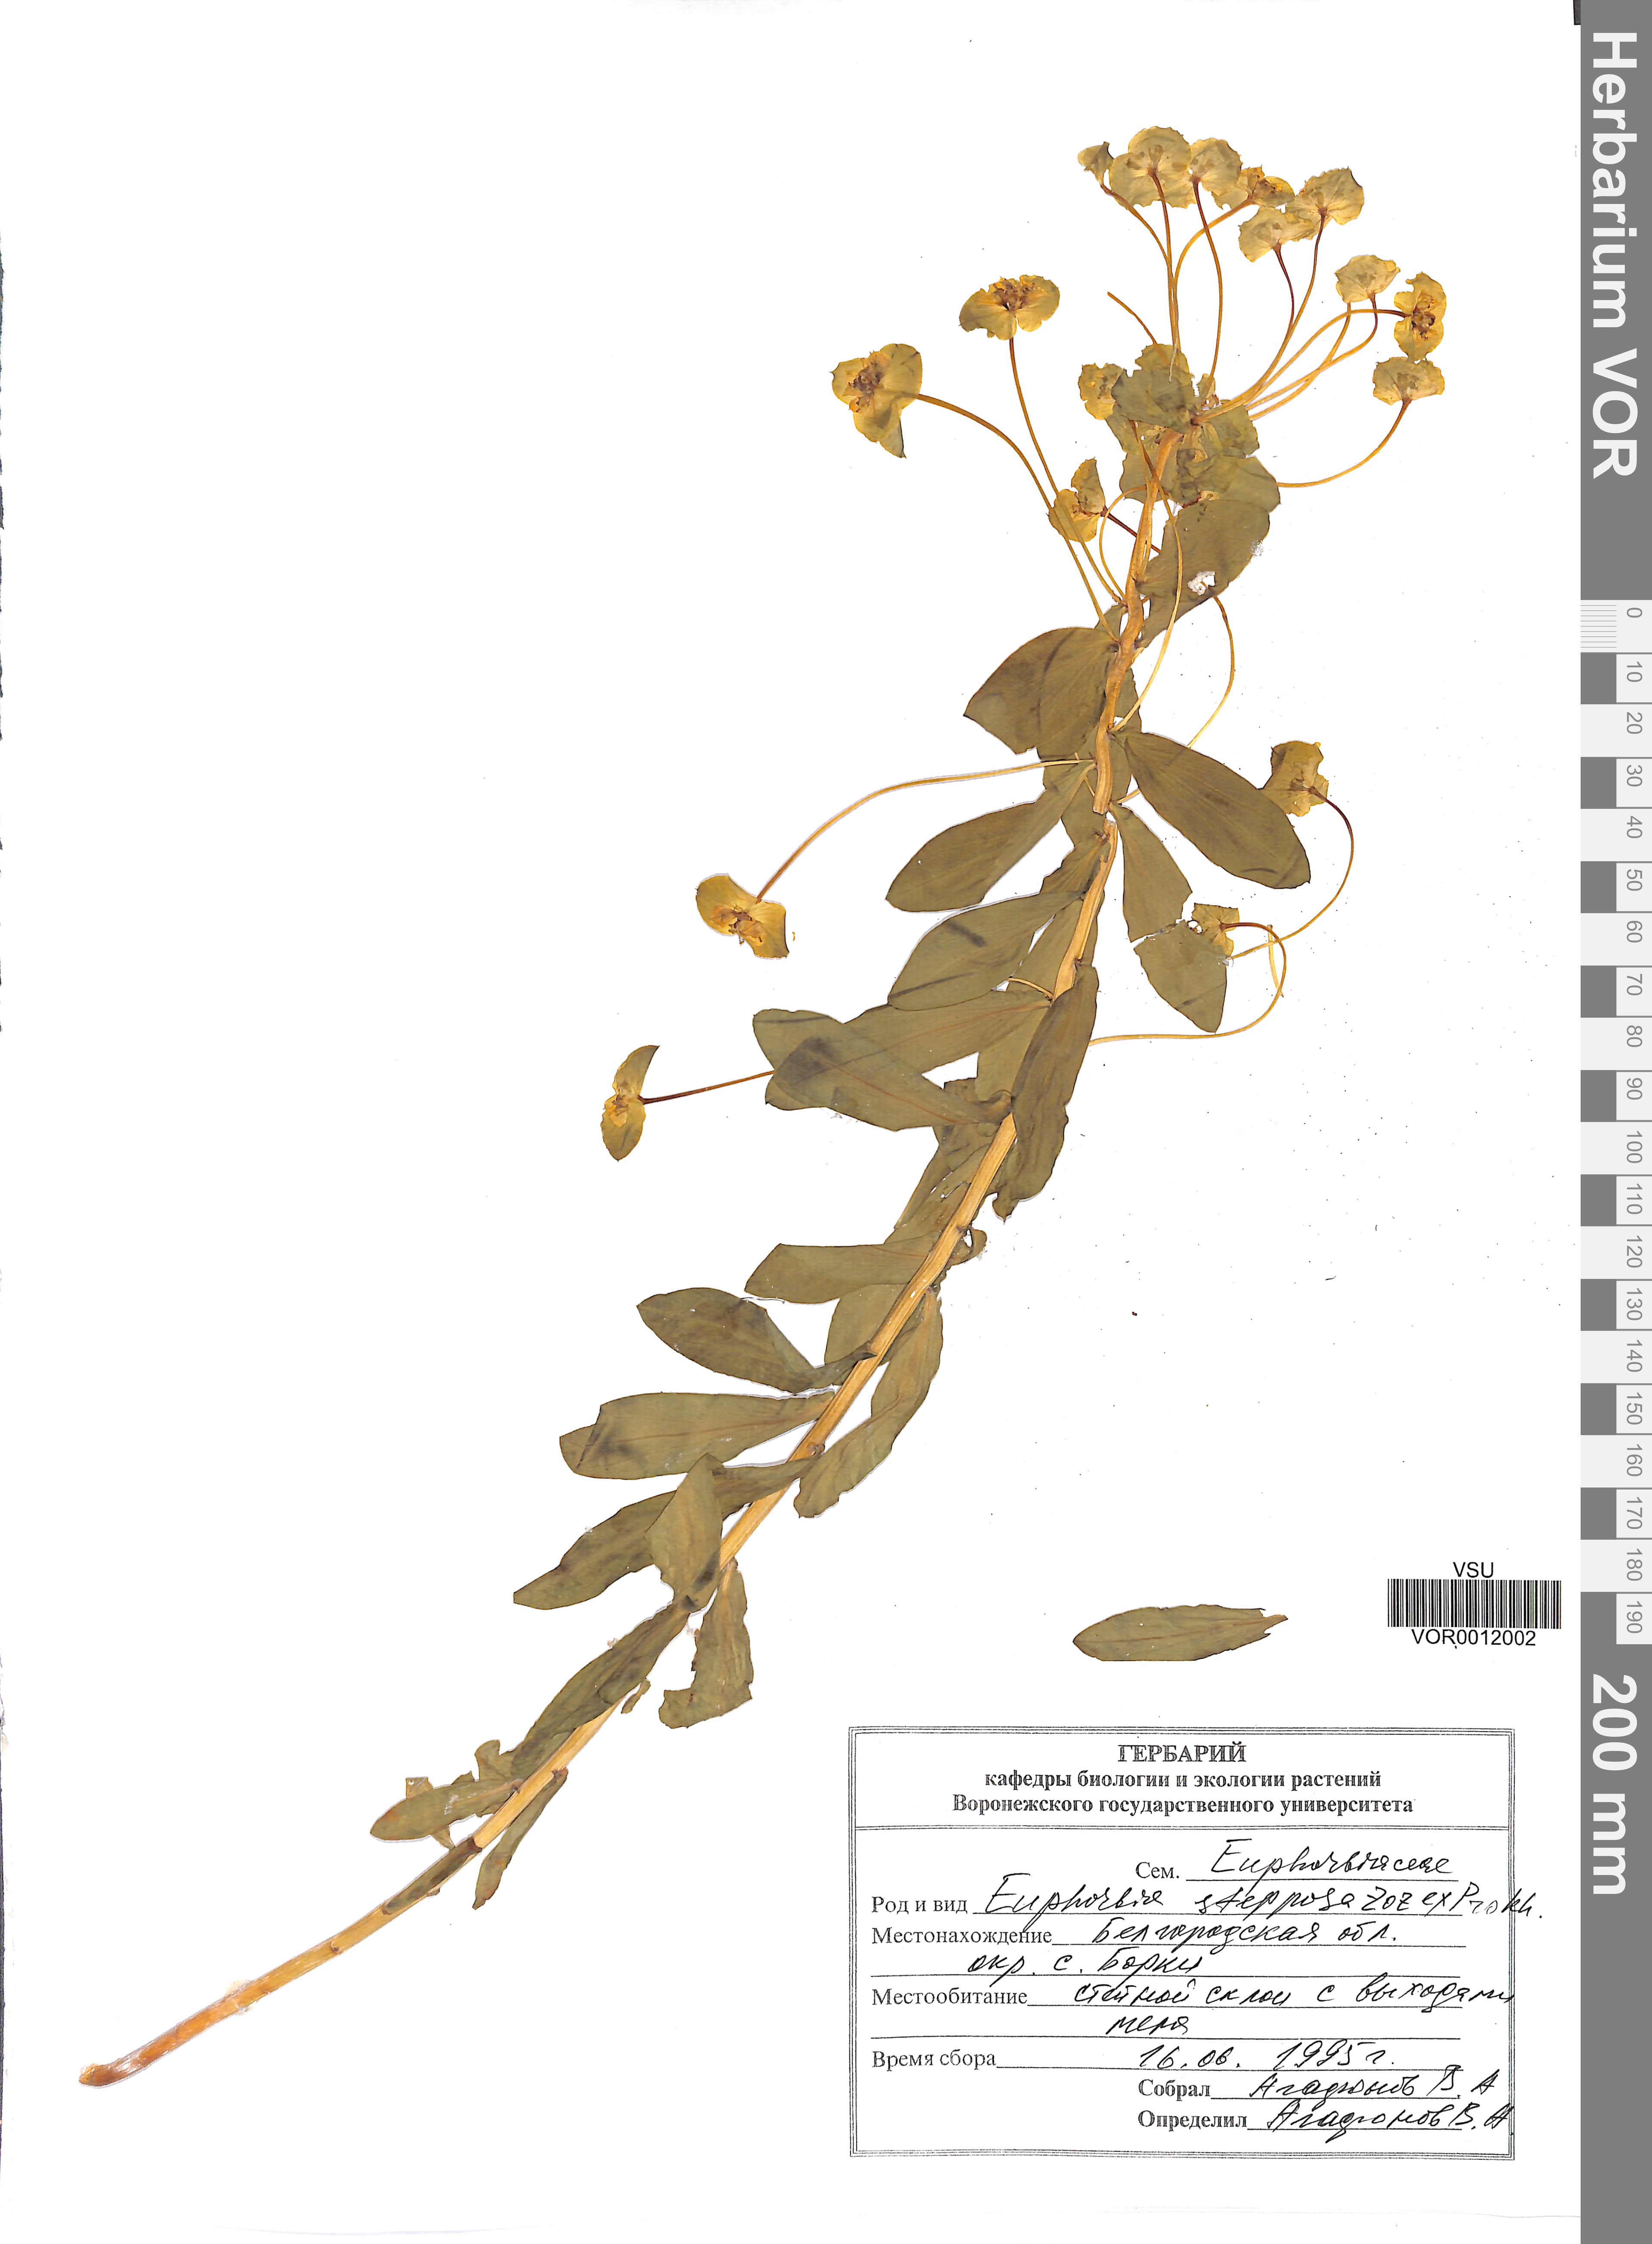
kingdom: Plantae
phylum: Tracheophyta
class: Magnoliopsida
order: Malpighiales
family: Euphorbiaceae
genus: Euphorbia
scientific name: Euphorbia stepposa
